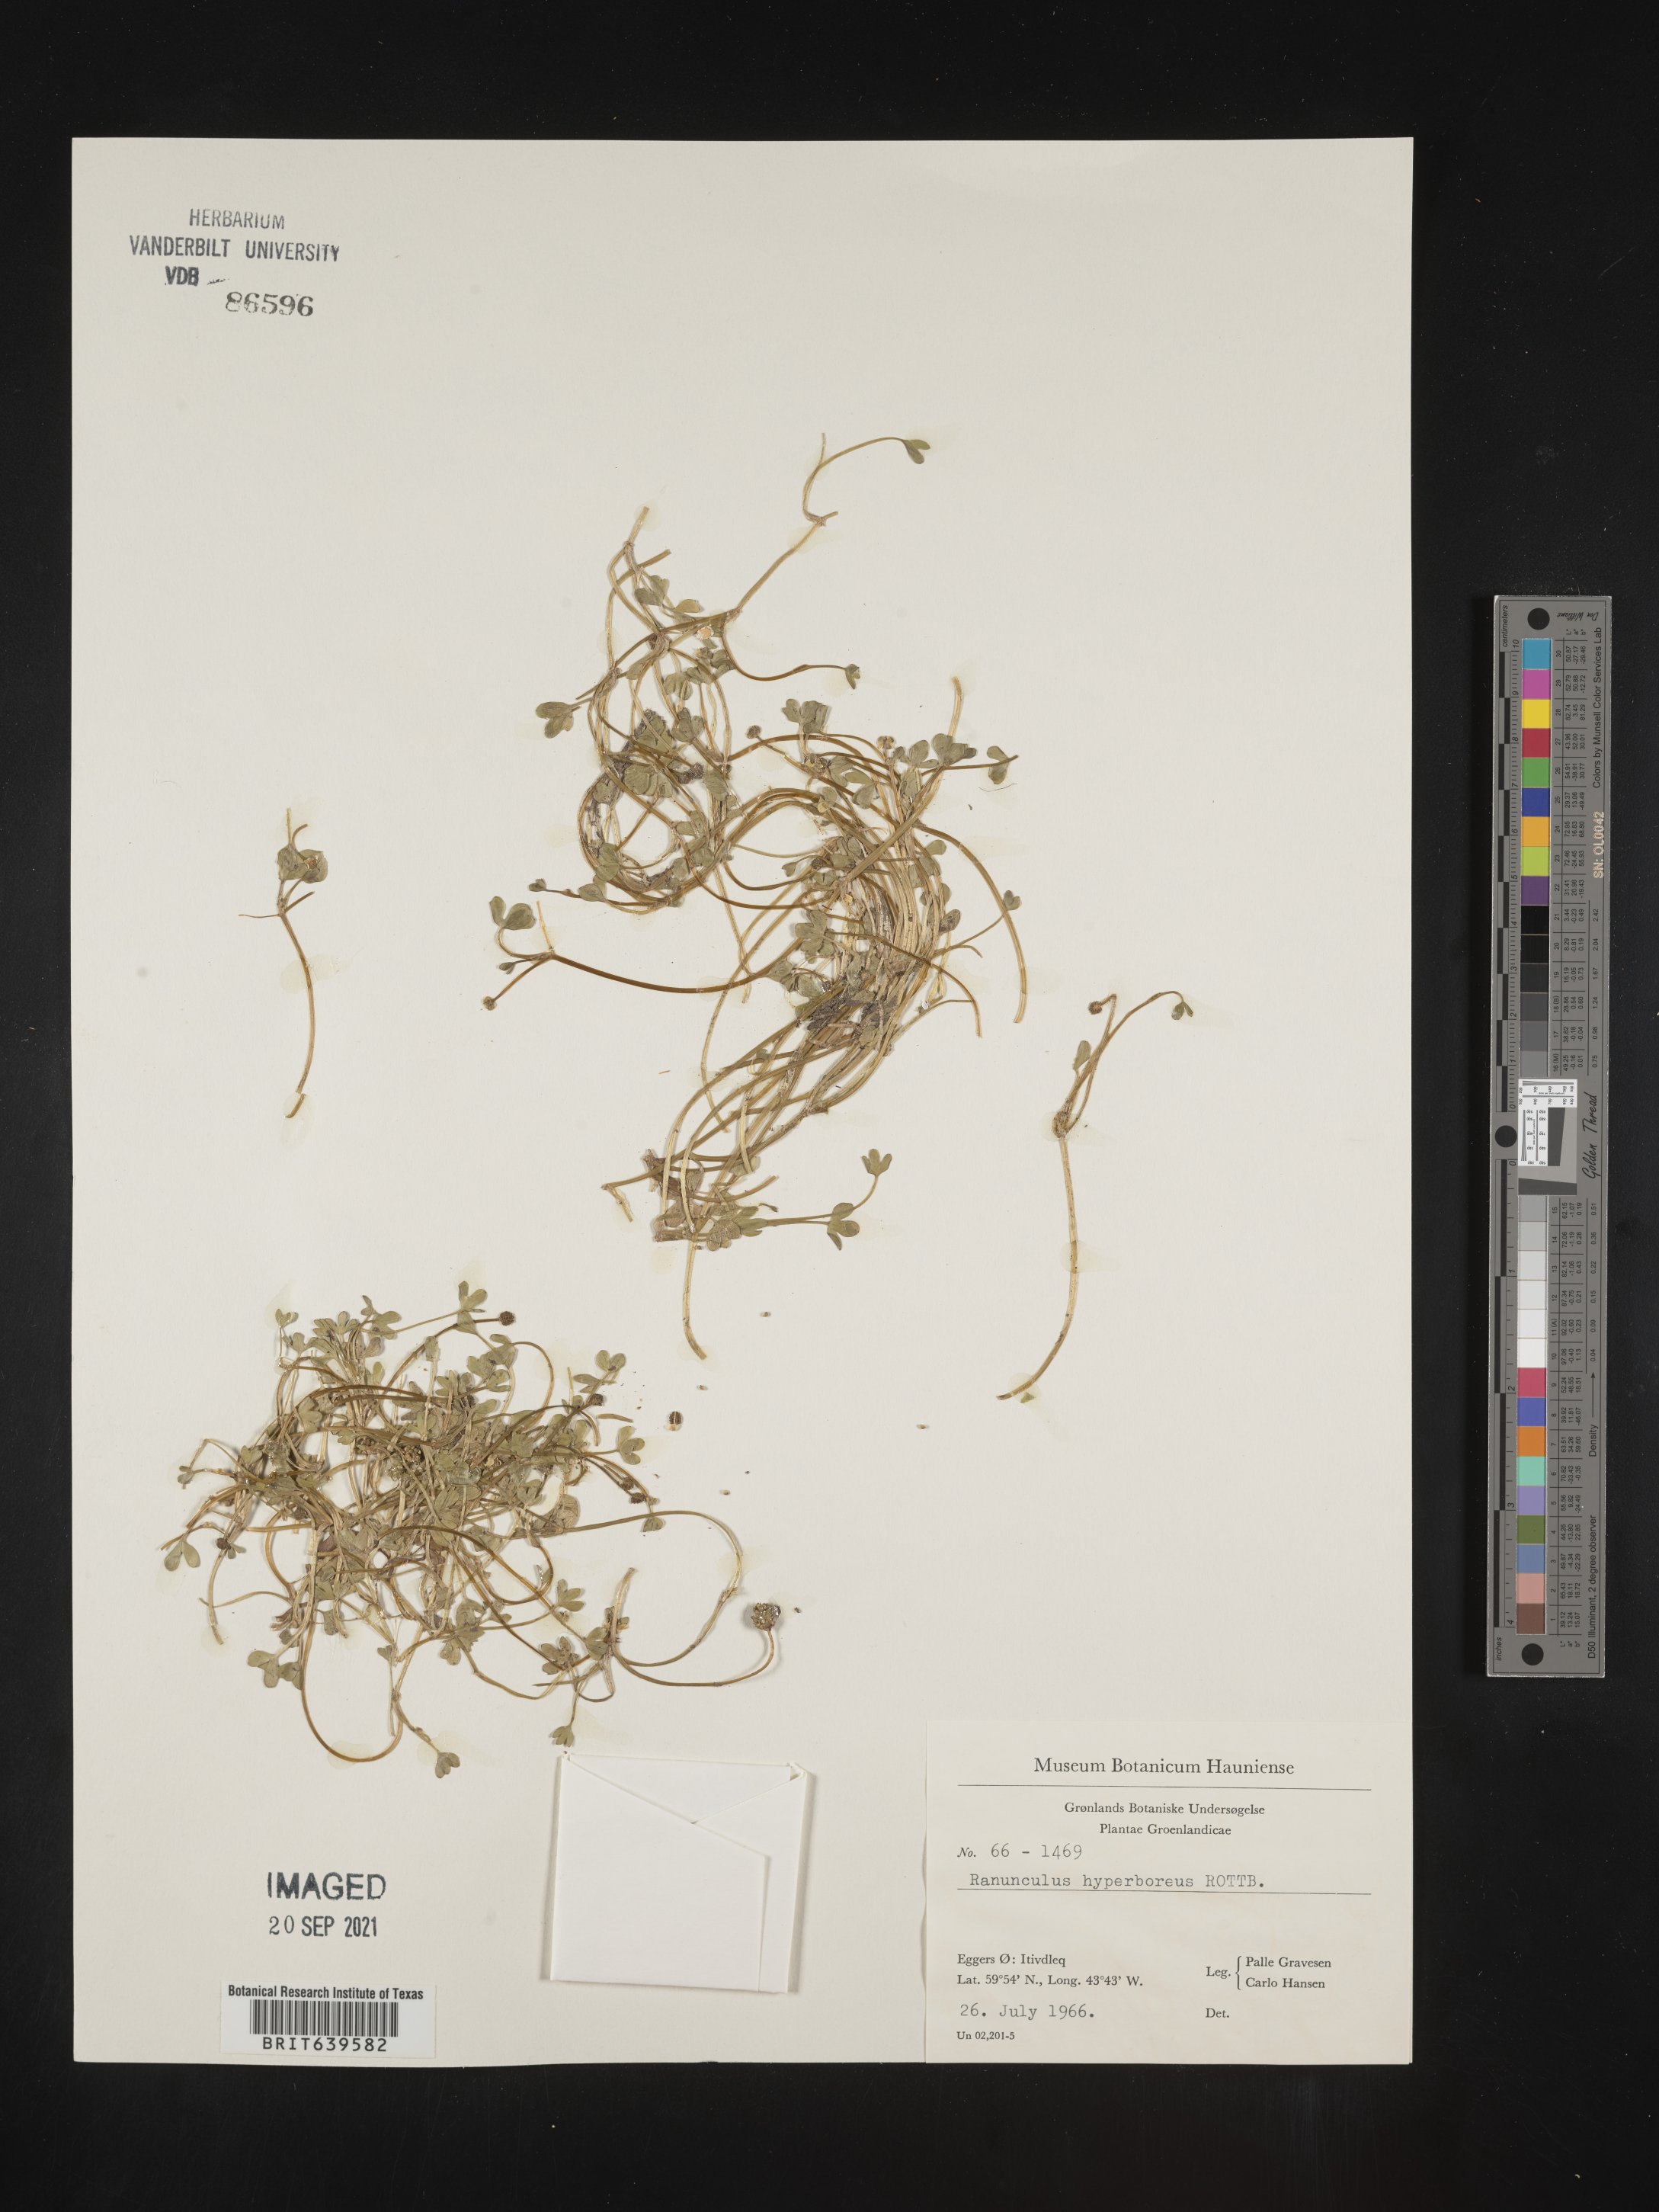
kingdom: Plantae
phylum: Tracheophyta
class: Magnoliopsida
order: Ranunculales
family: Ranunculaceae
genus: Ranunculus
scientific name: Ranunculus
